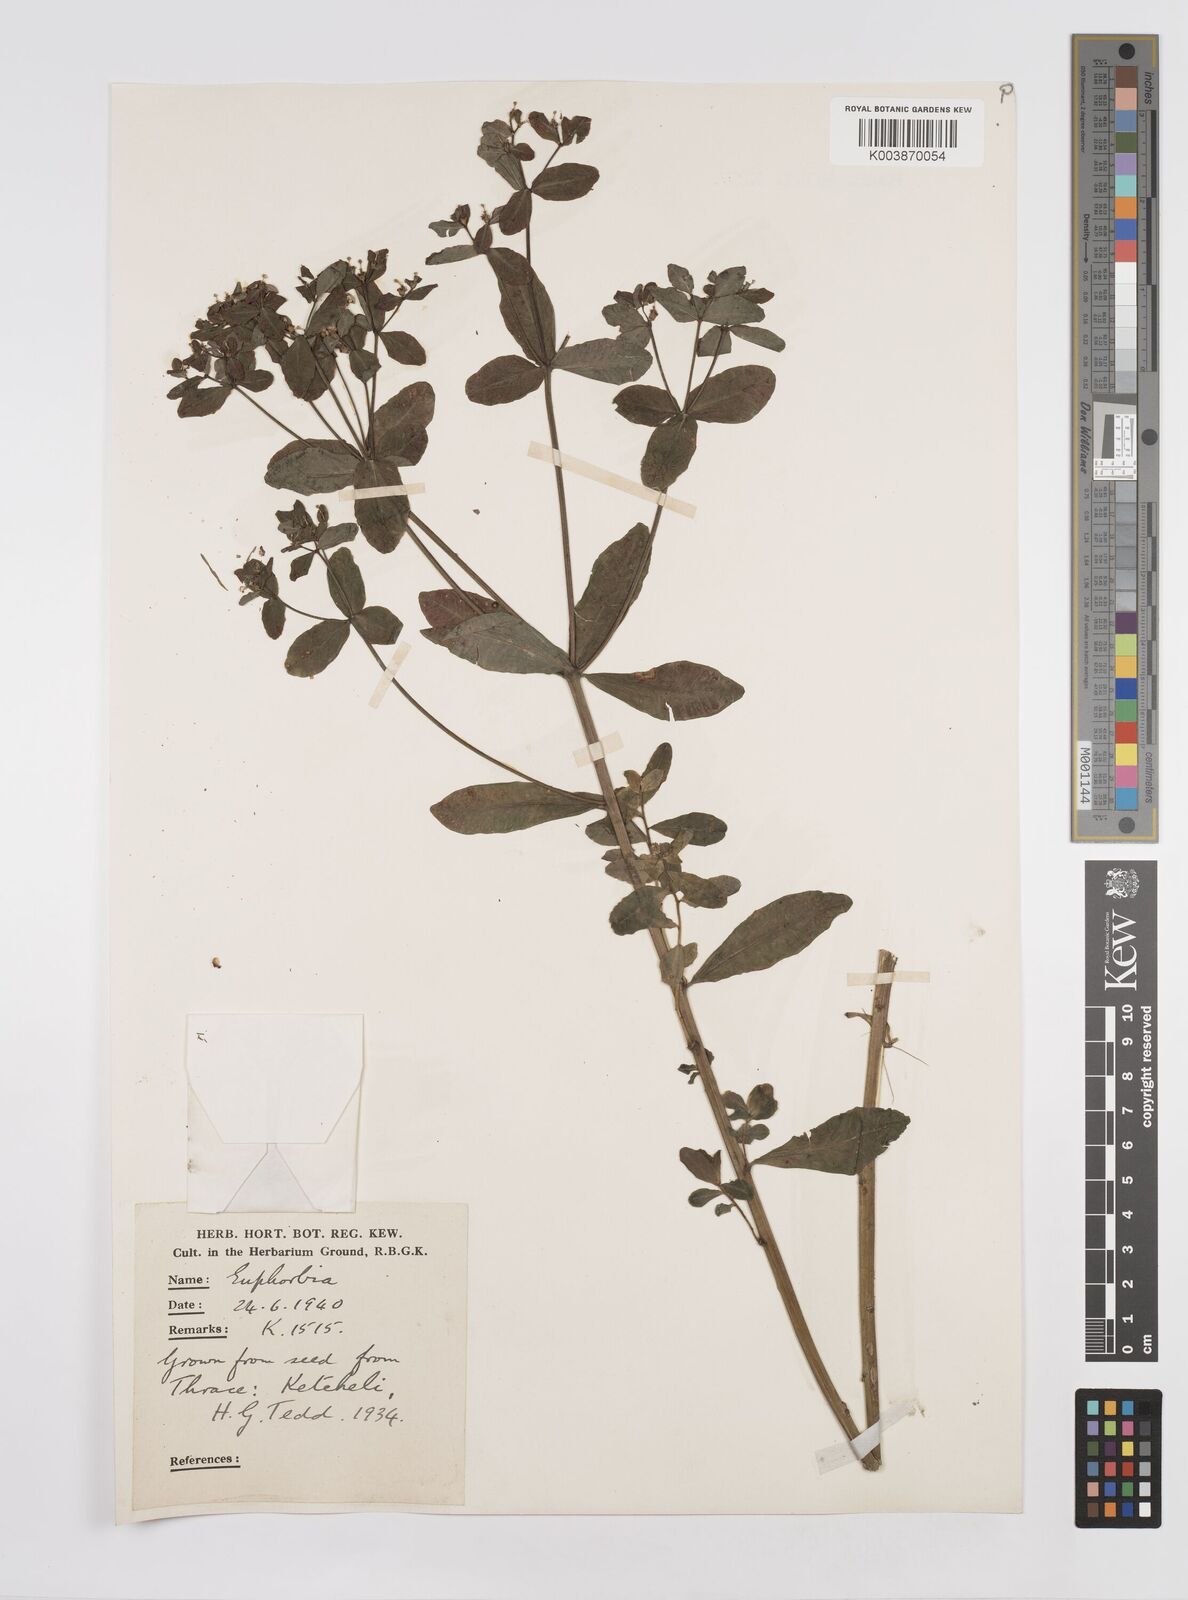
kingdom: Plantae
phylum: Tracheophyta
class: Magnoliopsida
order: Malpighiales
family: Euphorbiaceae
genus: Euphorbia
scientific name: Euphorbia epithymoides
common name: Cushion spurge
